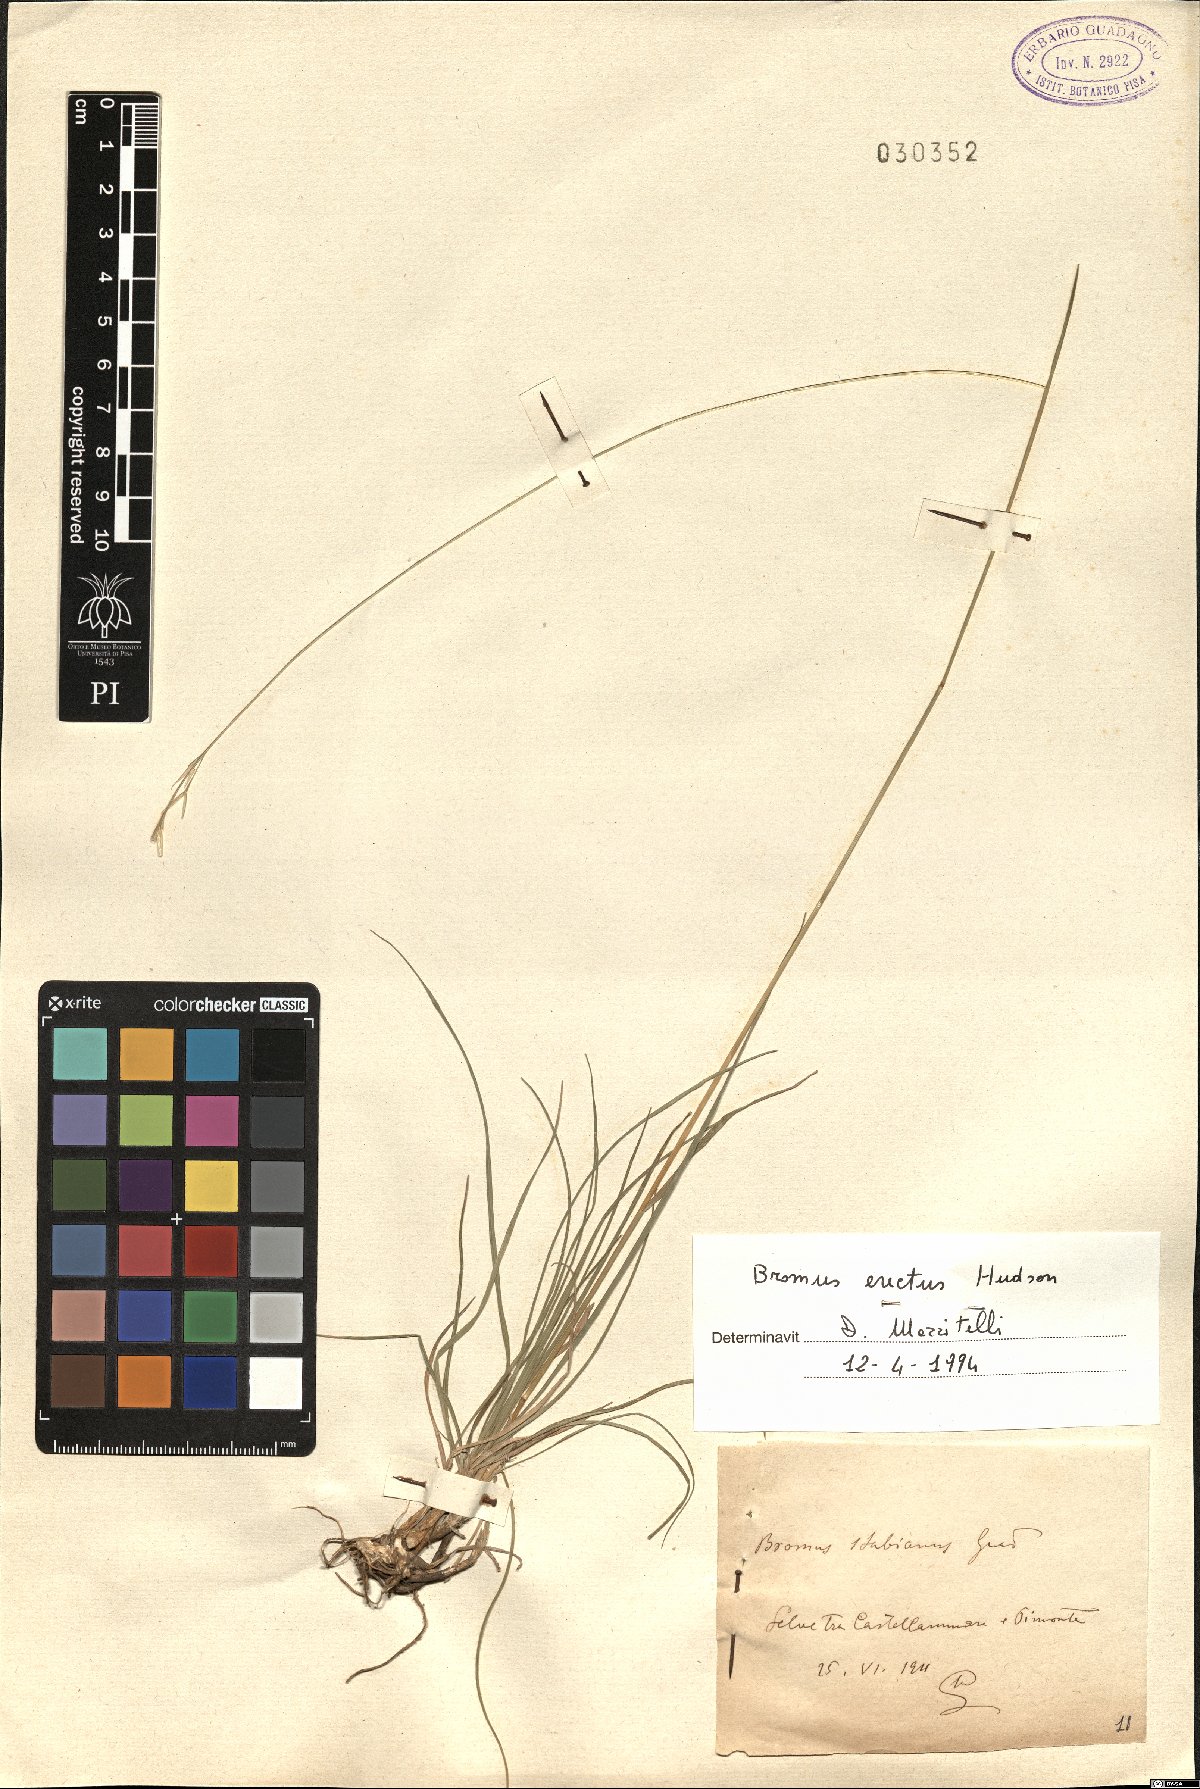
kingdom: Plantae
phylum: Tracheophyta
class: Liliopsida
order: Poales
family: Poaceae
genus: Bromus
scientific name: Bromus erectus
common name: Erect brome
